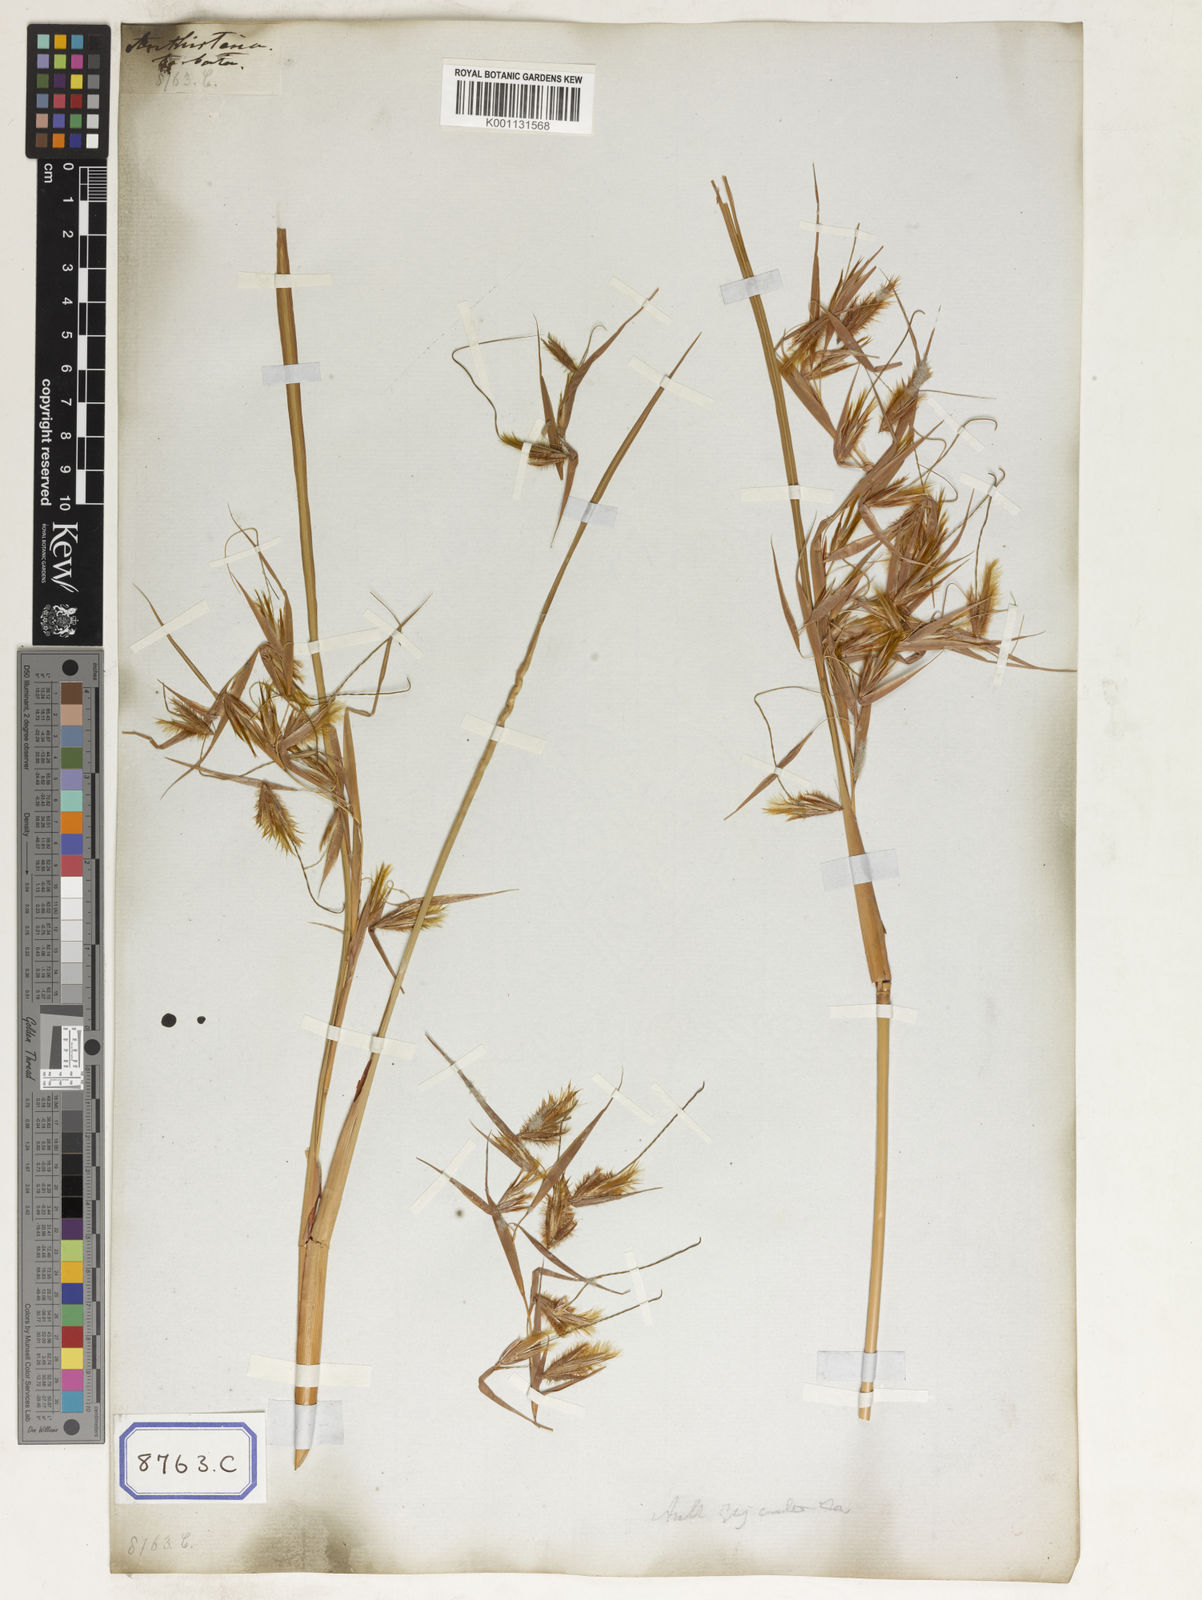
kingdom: Plantae
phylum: Tracheophyta
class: Liliopsida
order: Poales
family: Poaceae
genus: Themeda
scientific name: Themeda
